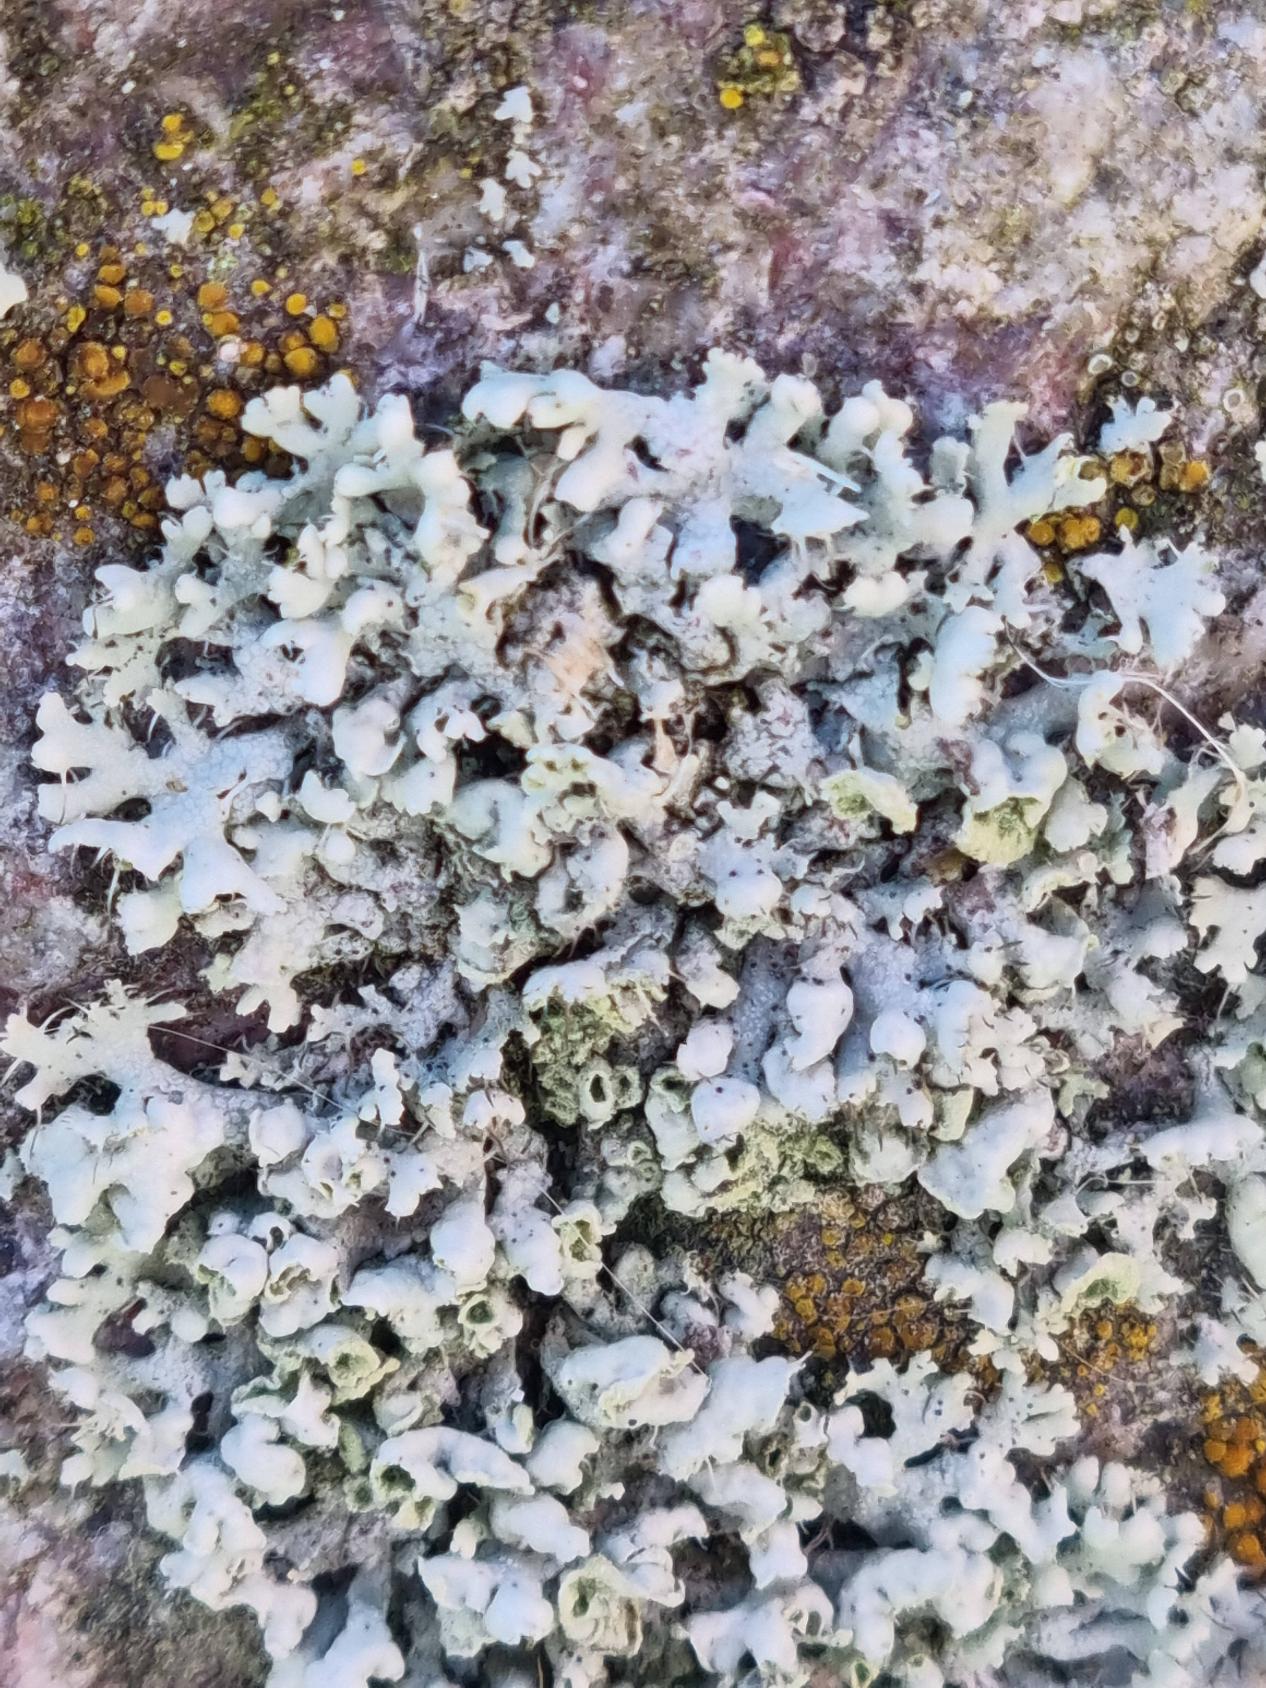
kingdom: Fungi
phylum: Ascomycota
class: Lecanoromycetes
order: Caliciales
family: Physciaceae
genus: Physcia
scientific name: Physcia adscendens
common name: Hætte-rosetlav
